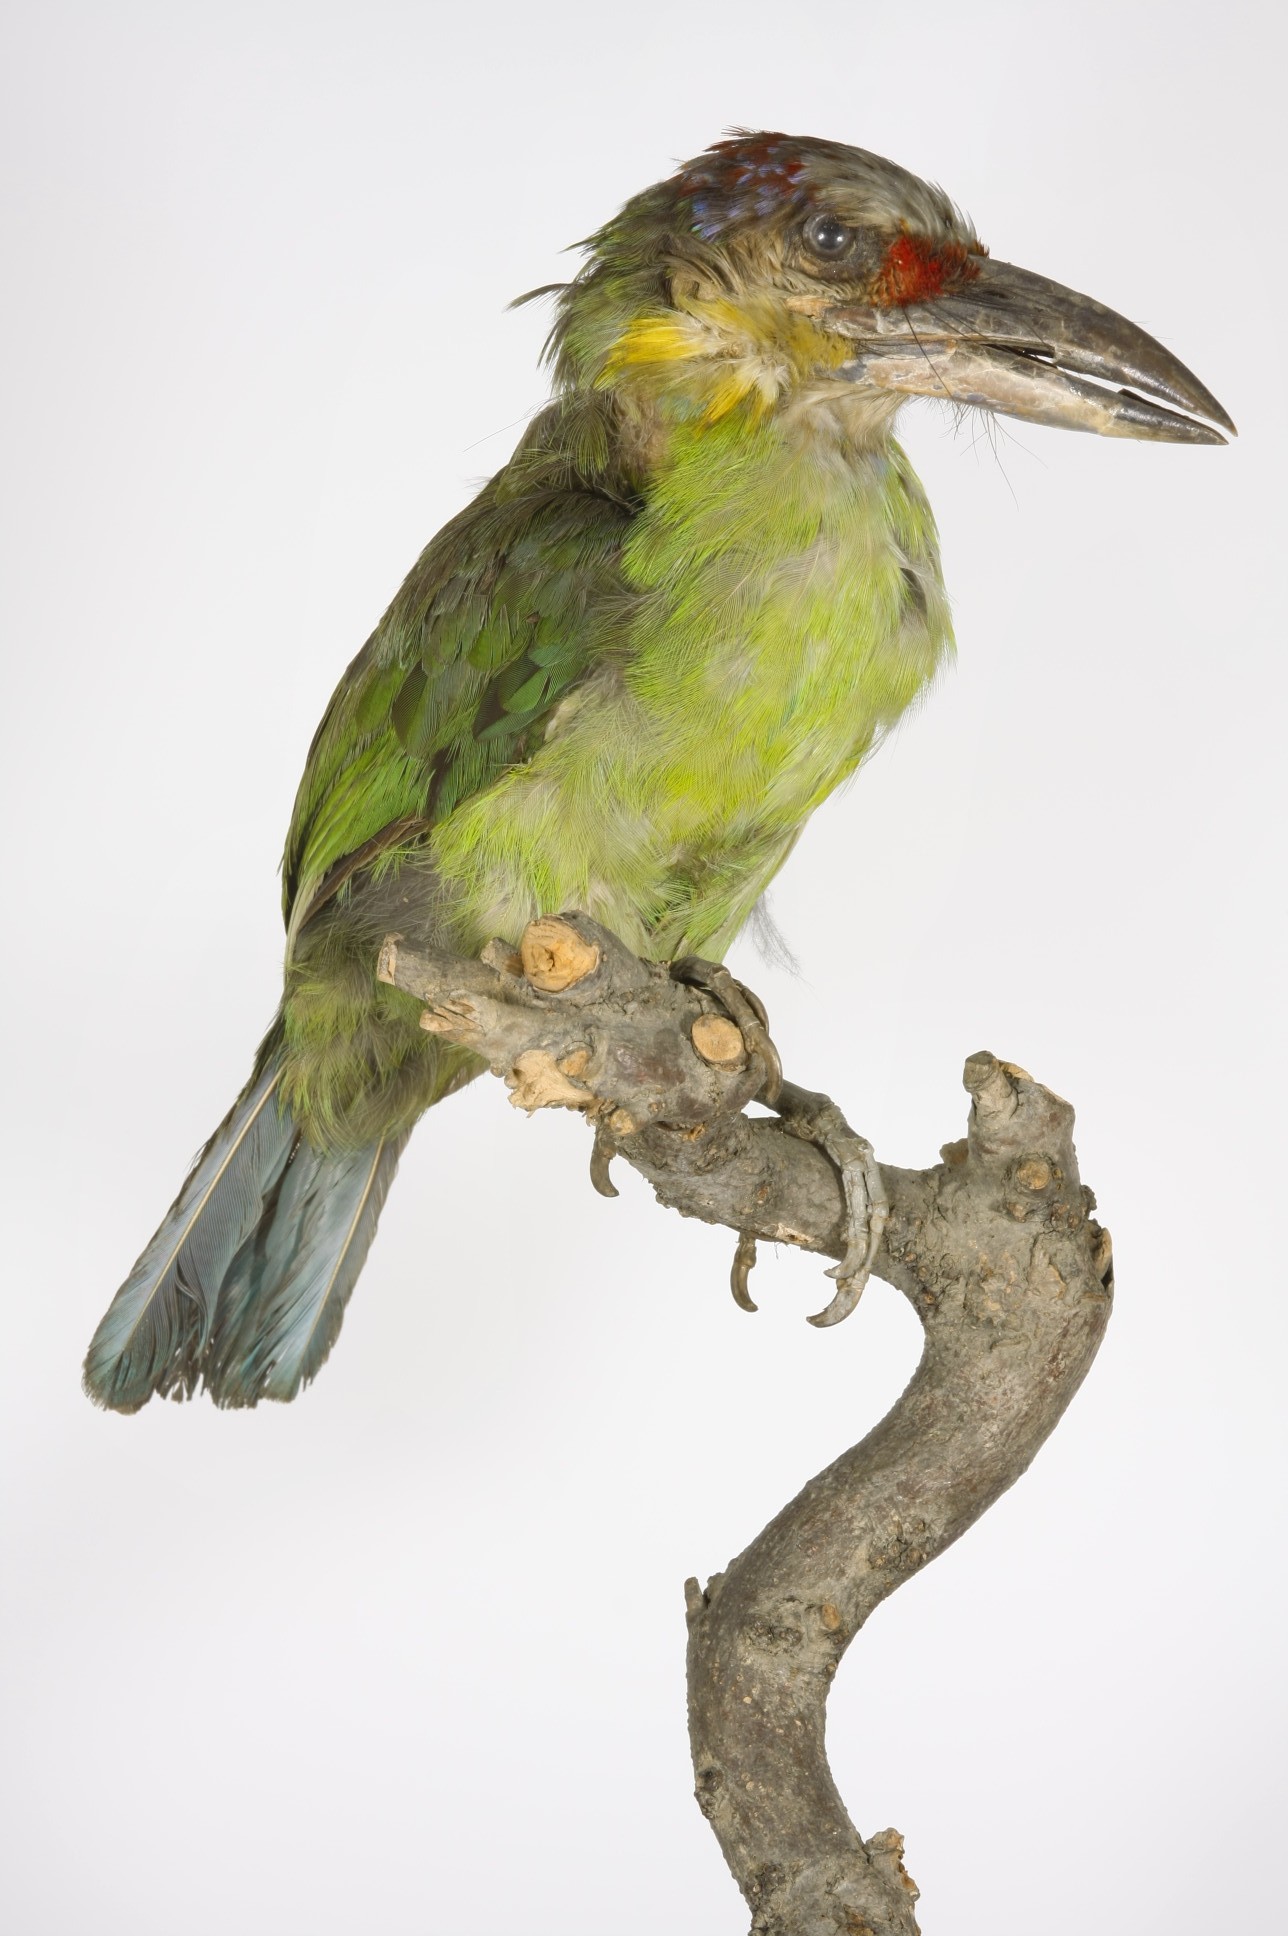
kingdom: Animalia
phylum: Chordata
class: Aves
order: Piciformes
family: Megalaimidae
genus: Psilopogon
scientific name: Psilopogon chrysopogon
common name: Golden-whiskered barbet
